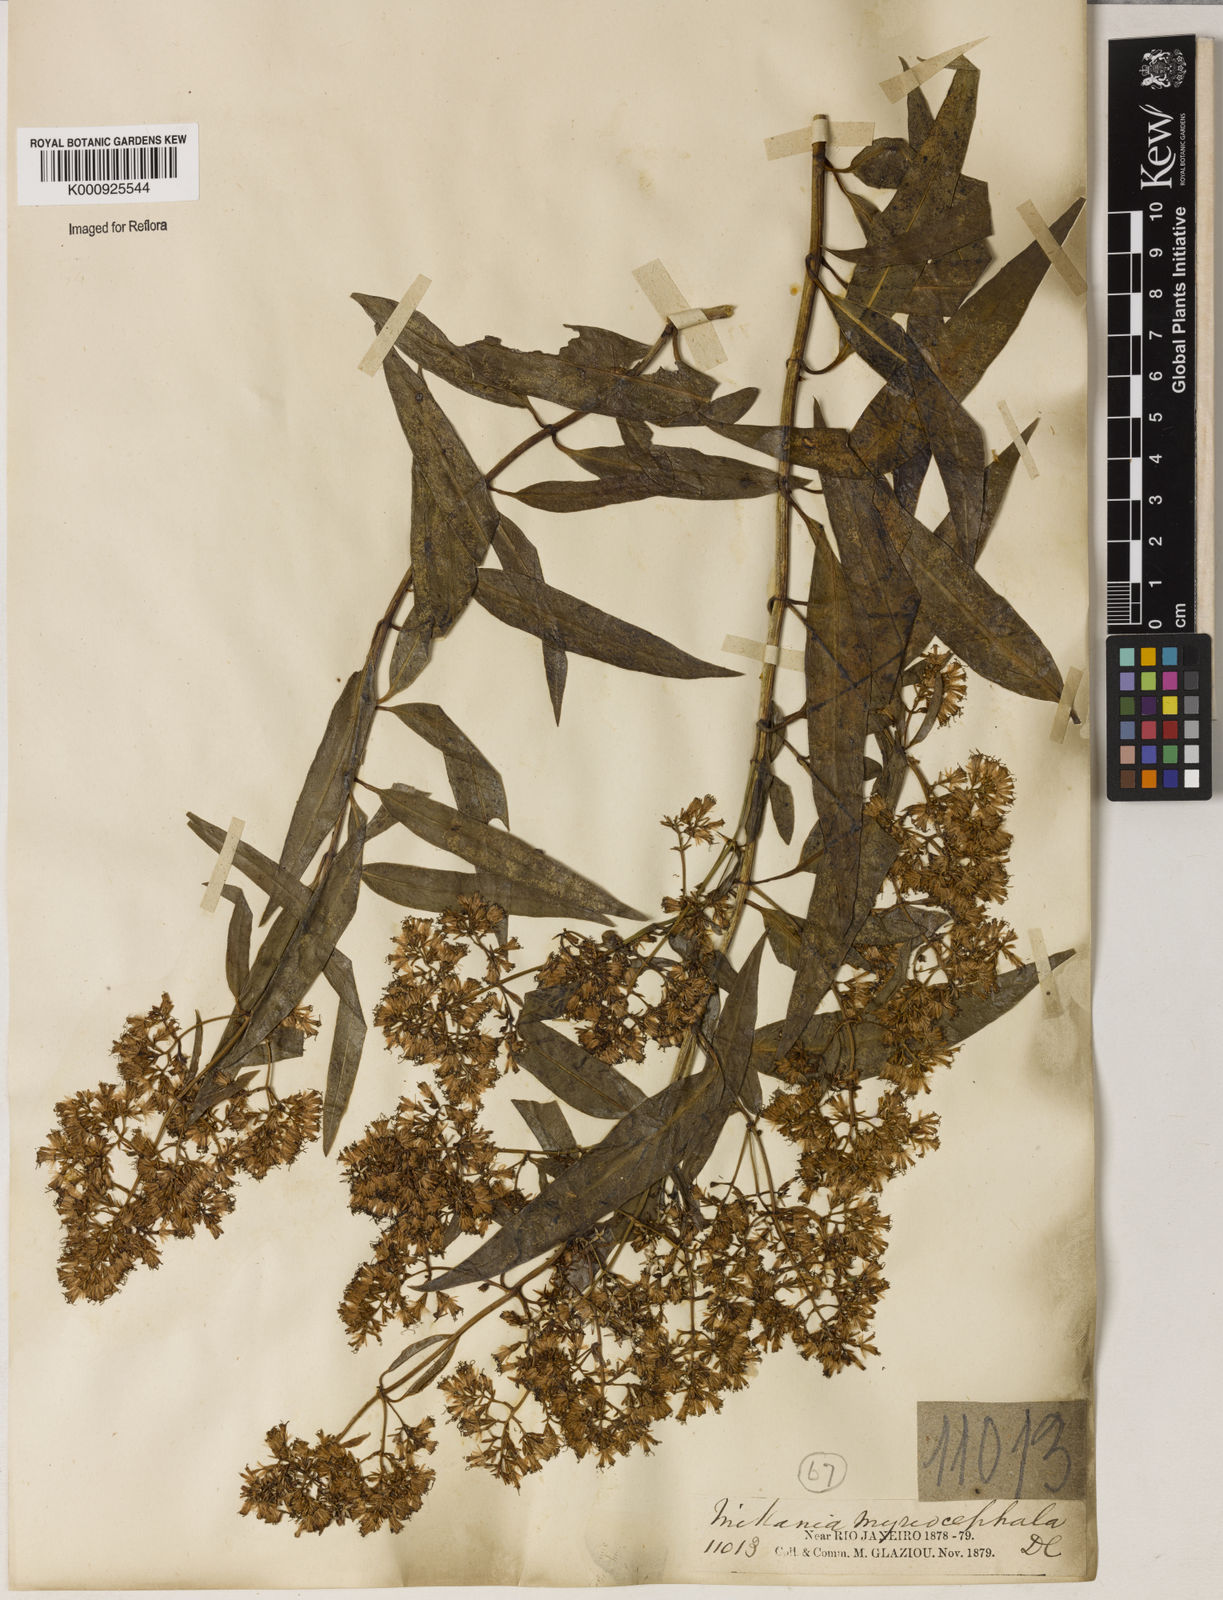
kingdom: Plantae
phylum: Tracheophyta
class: Magnoliopsida
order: Asterales
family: Asteraceae
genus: Mikania
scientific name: Mikania myriocephala
